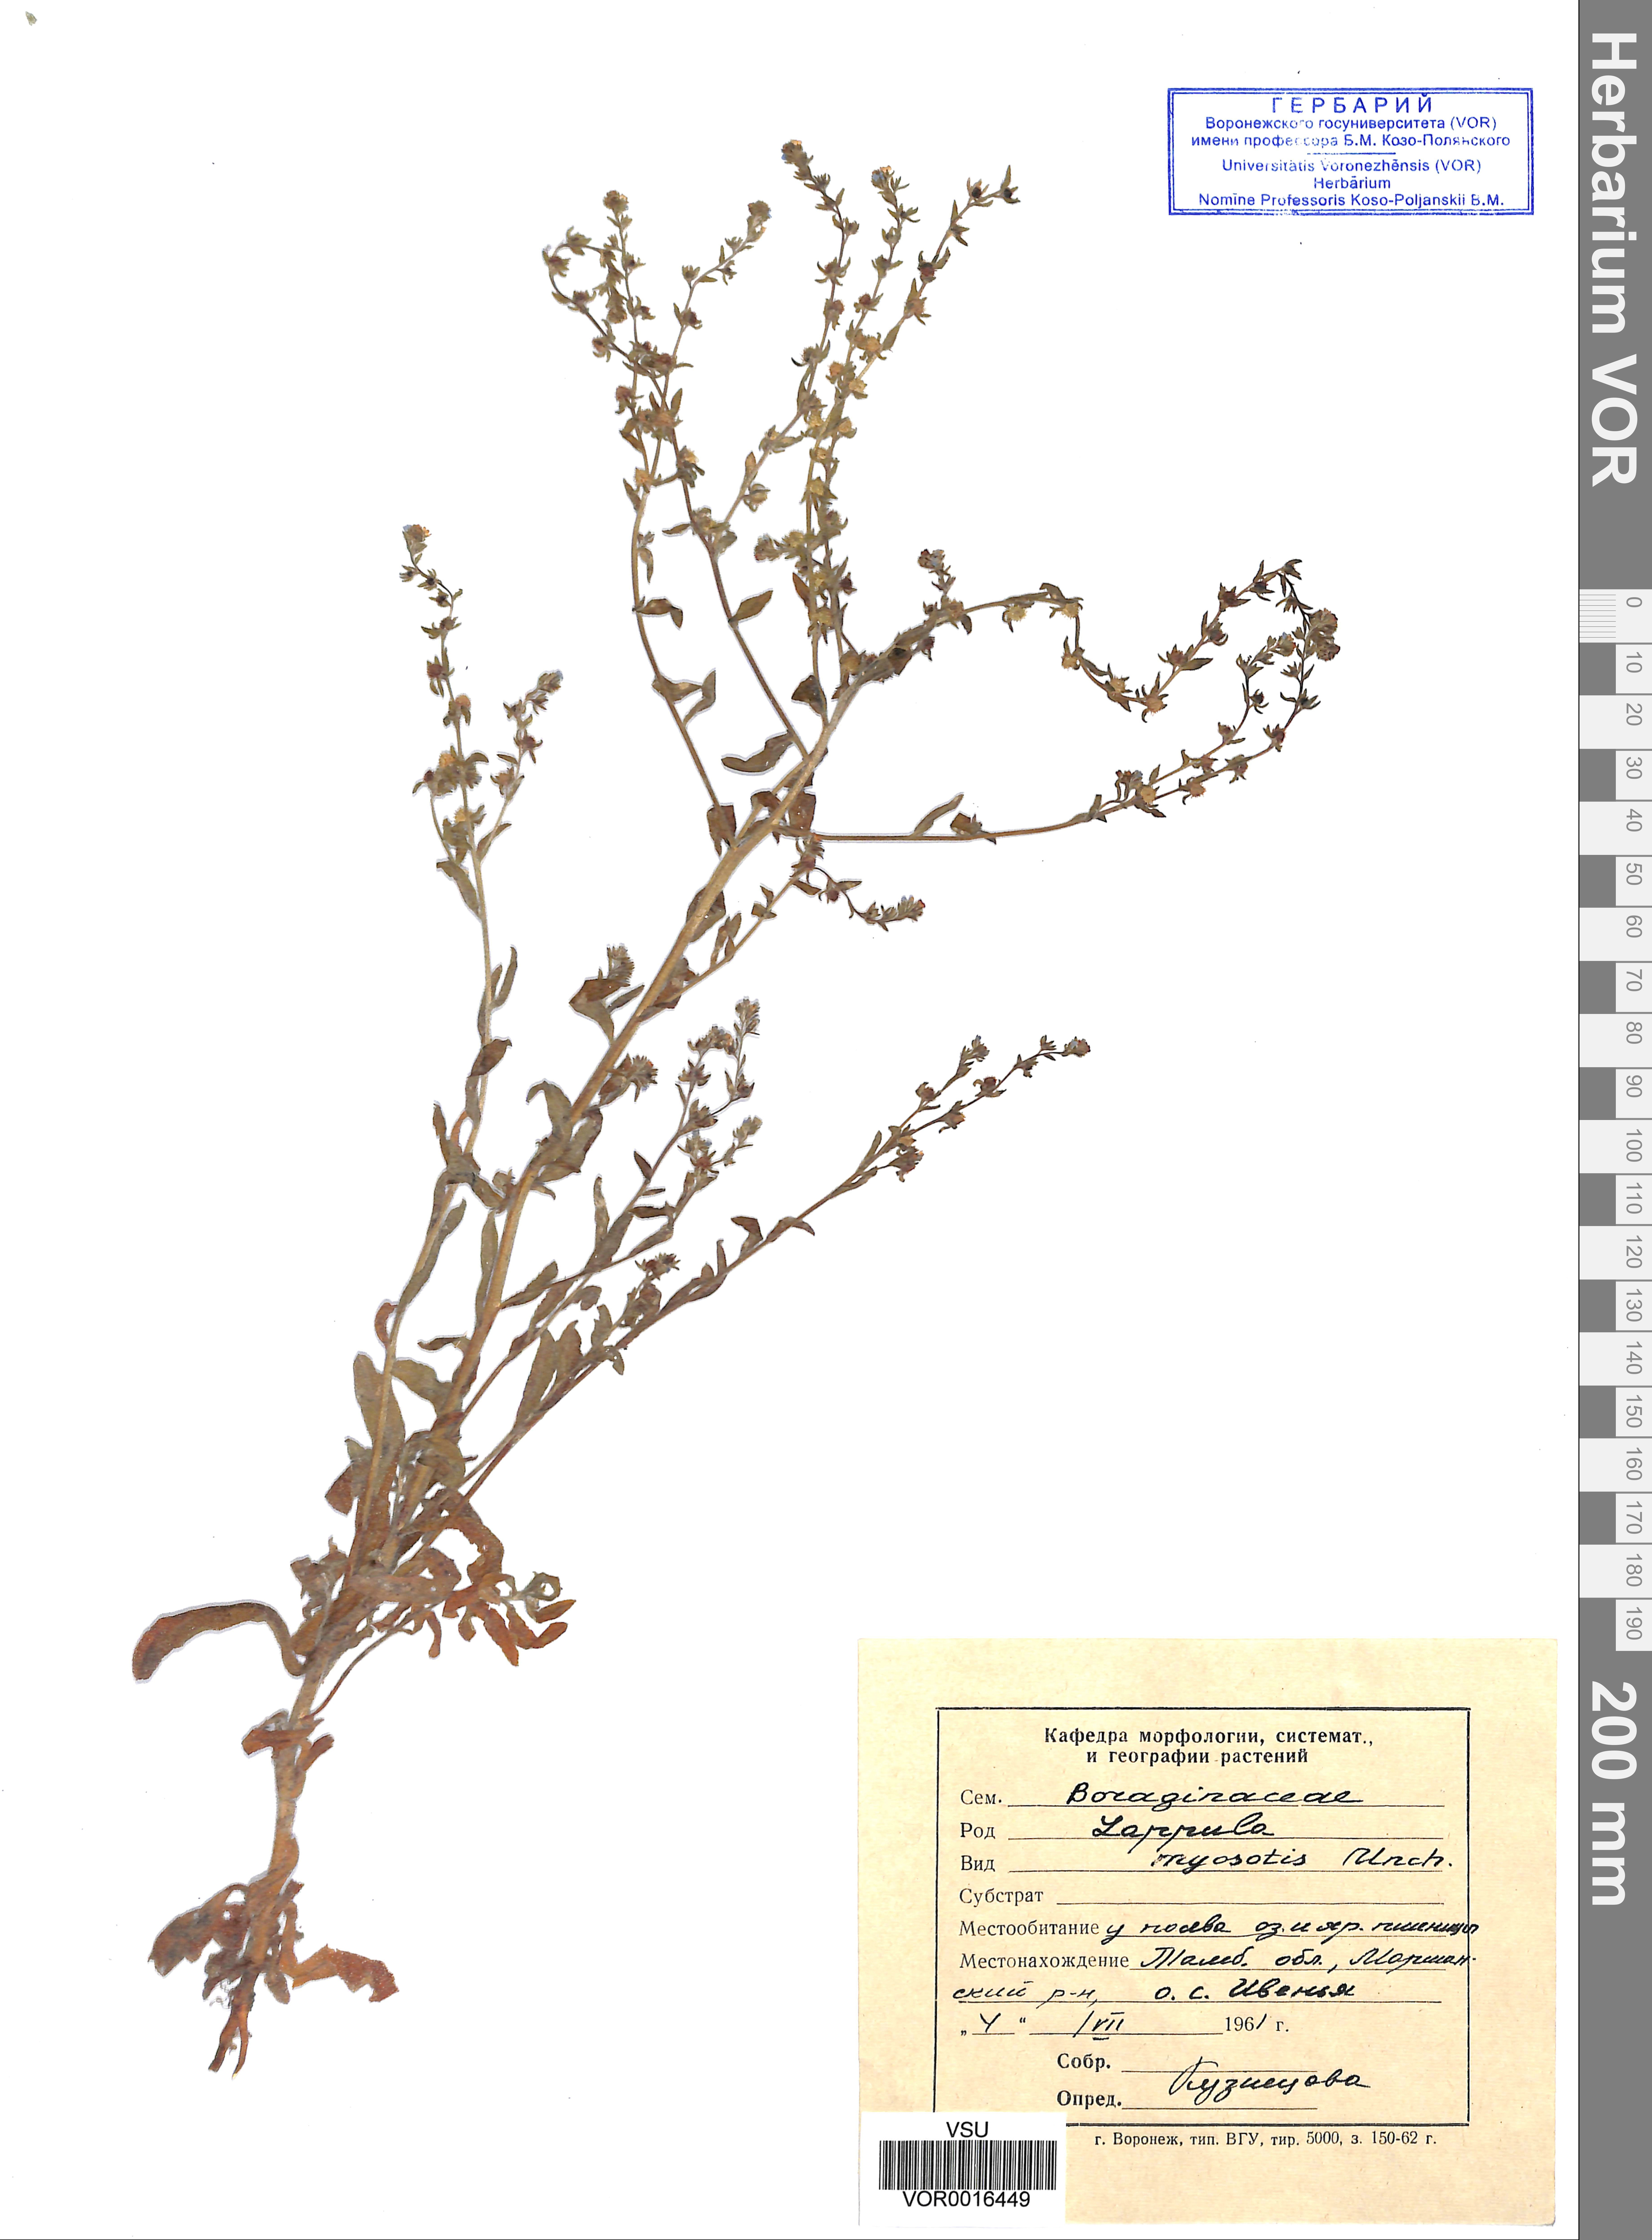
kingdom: Plantae
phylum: Tracheophyta
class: Magnoliopsida
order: Boraginales
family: Boraginaceae
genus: Lappula
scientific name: Lappula squarrosa
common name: European stickseed
